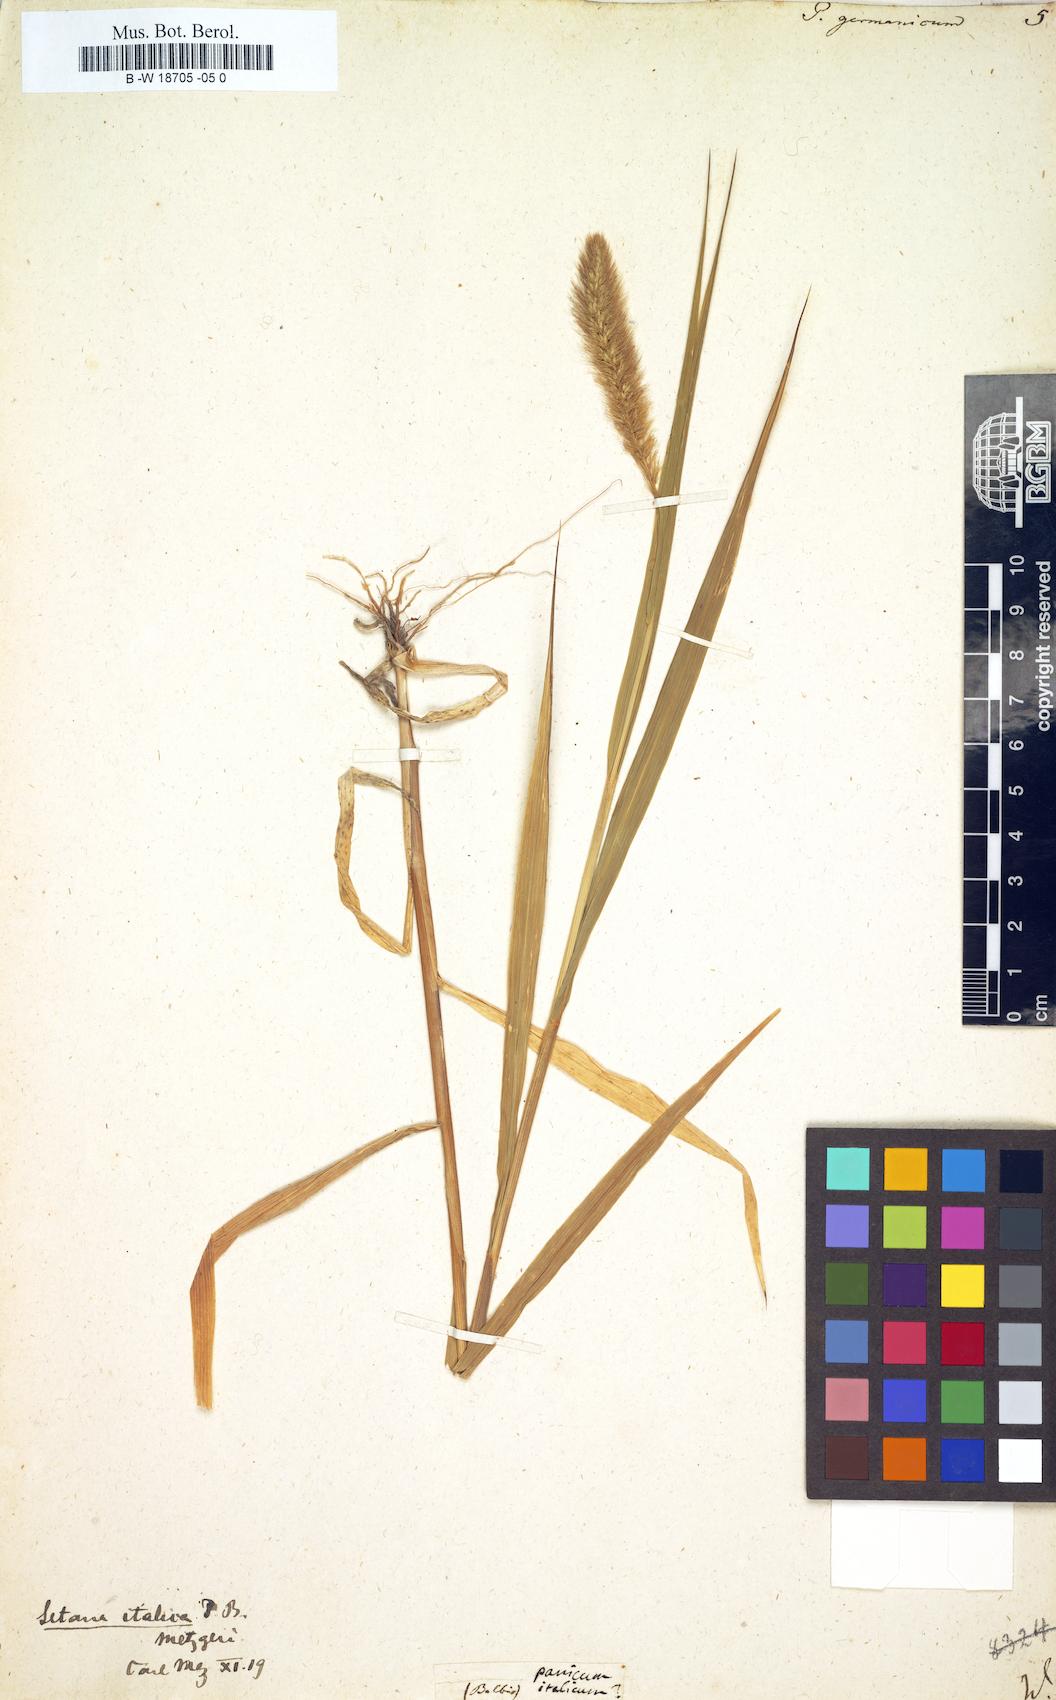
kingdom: Plantae
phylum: Tracheophyta
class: Liliopsida
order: Poales
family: Poaceae
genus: Setaria
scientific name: Setaria italica
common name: Foxtail bristle-grass
